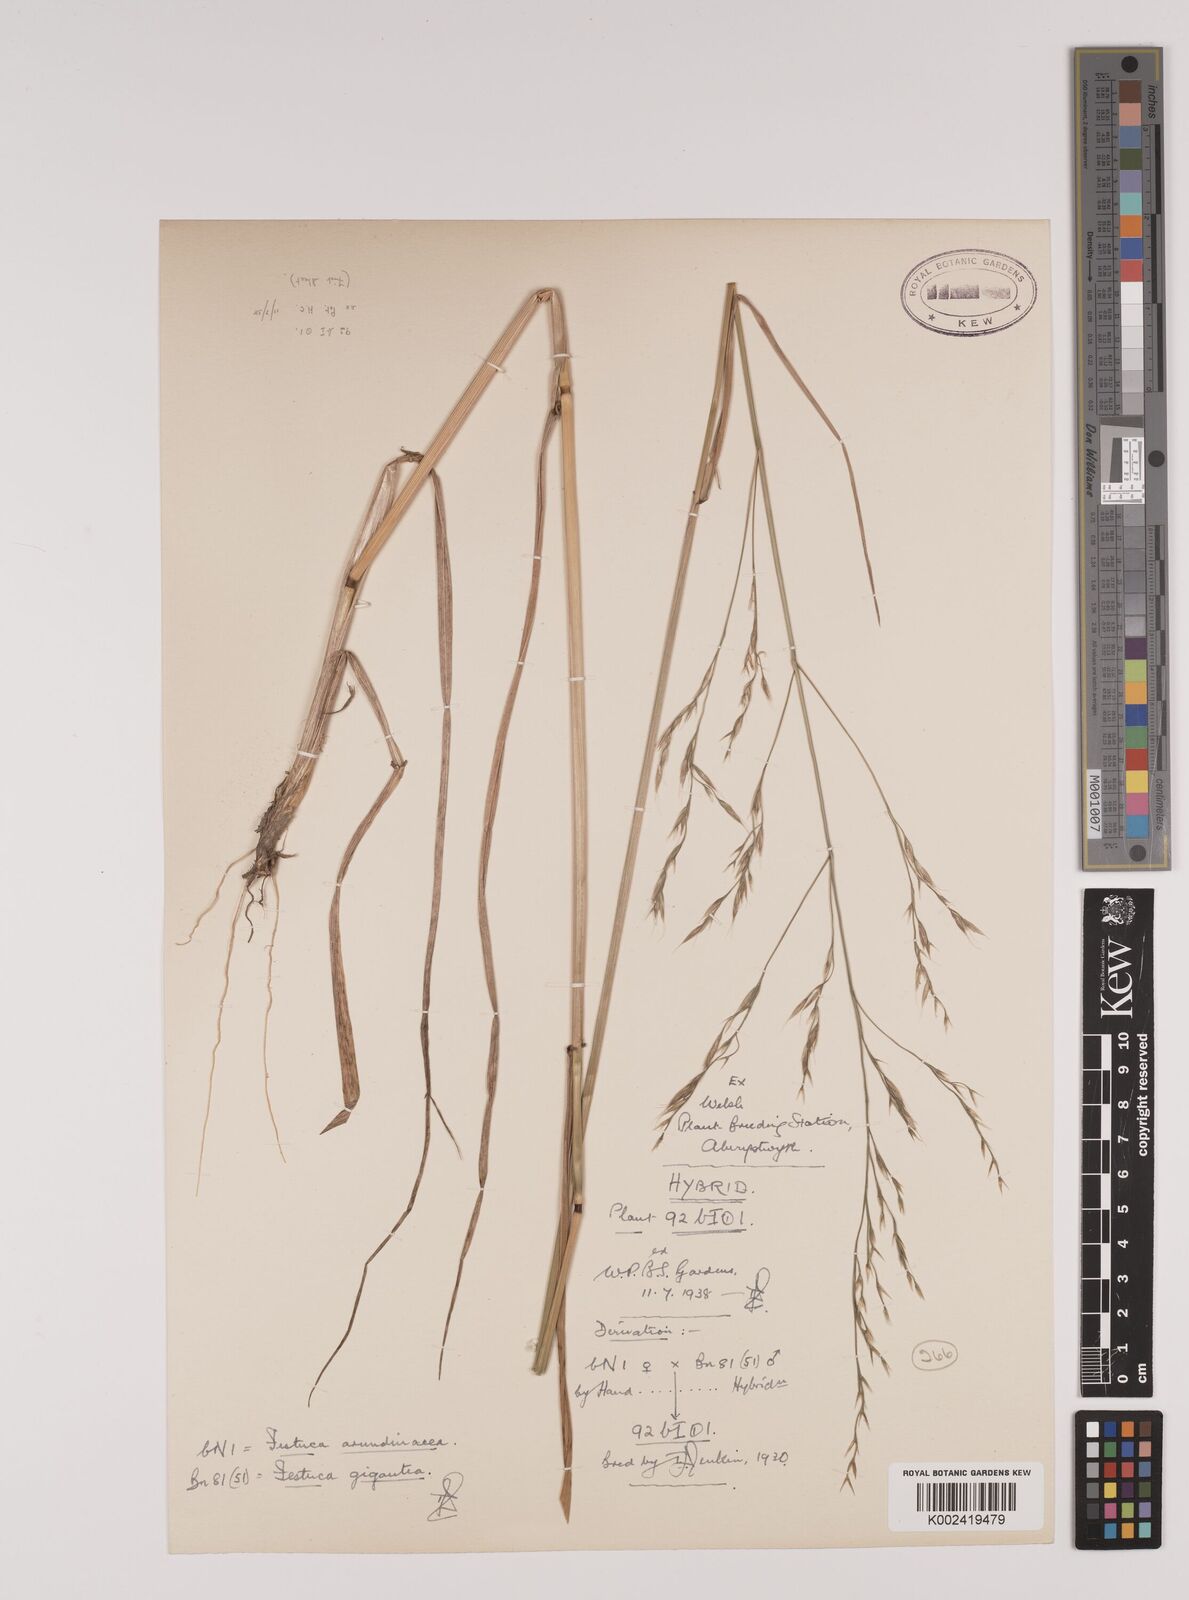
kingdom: Plantae
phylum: Tracheophyta
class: Liliopsida
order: Poales
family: Poaceae
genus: Lolium
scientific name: Lolium giganteum
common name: Giant fescue
